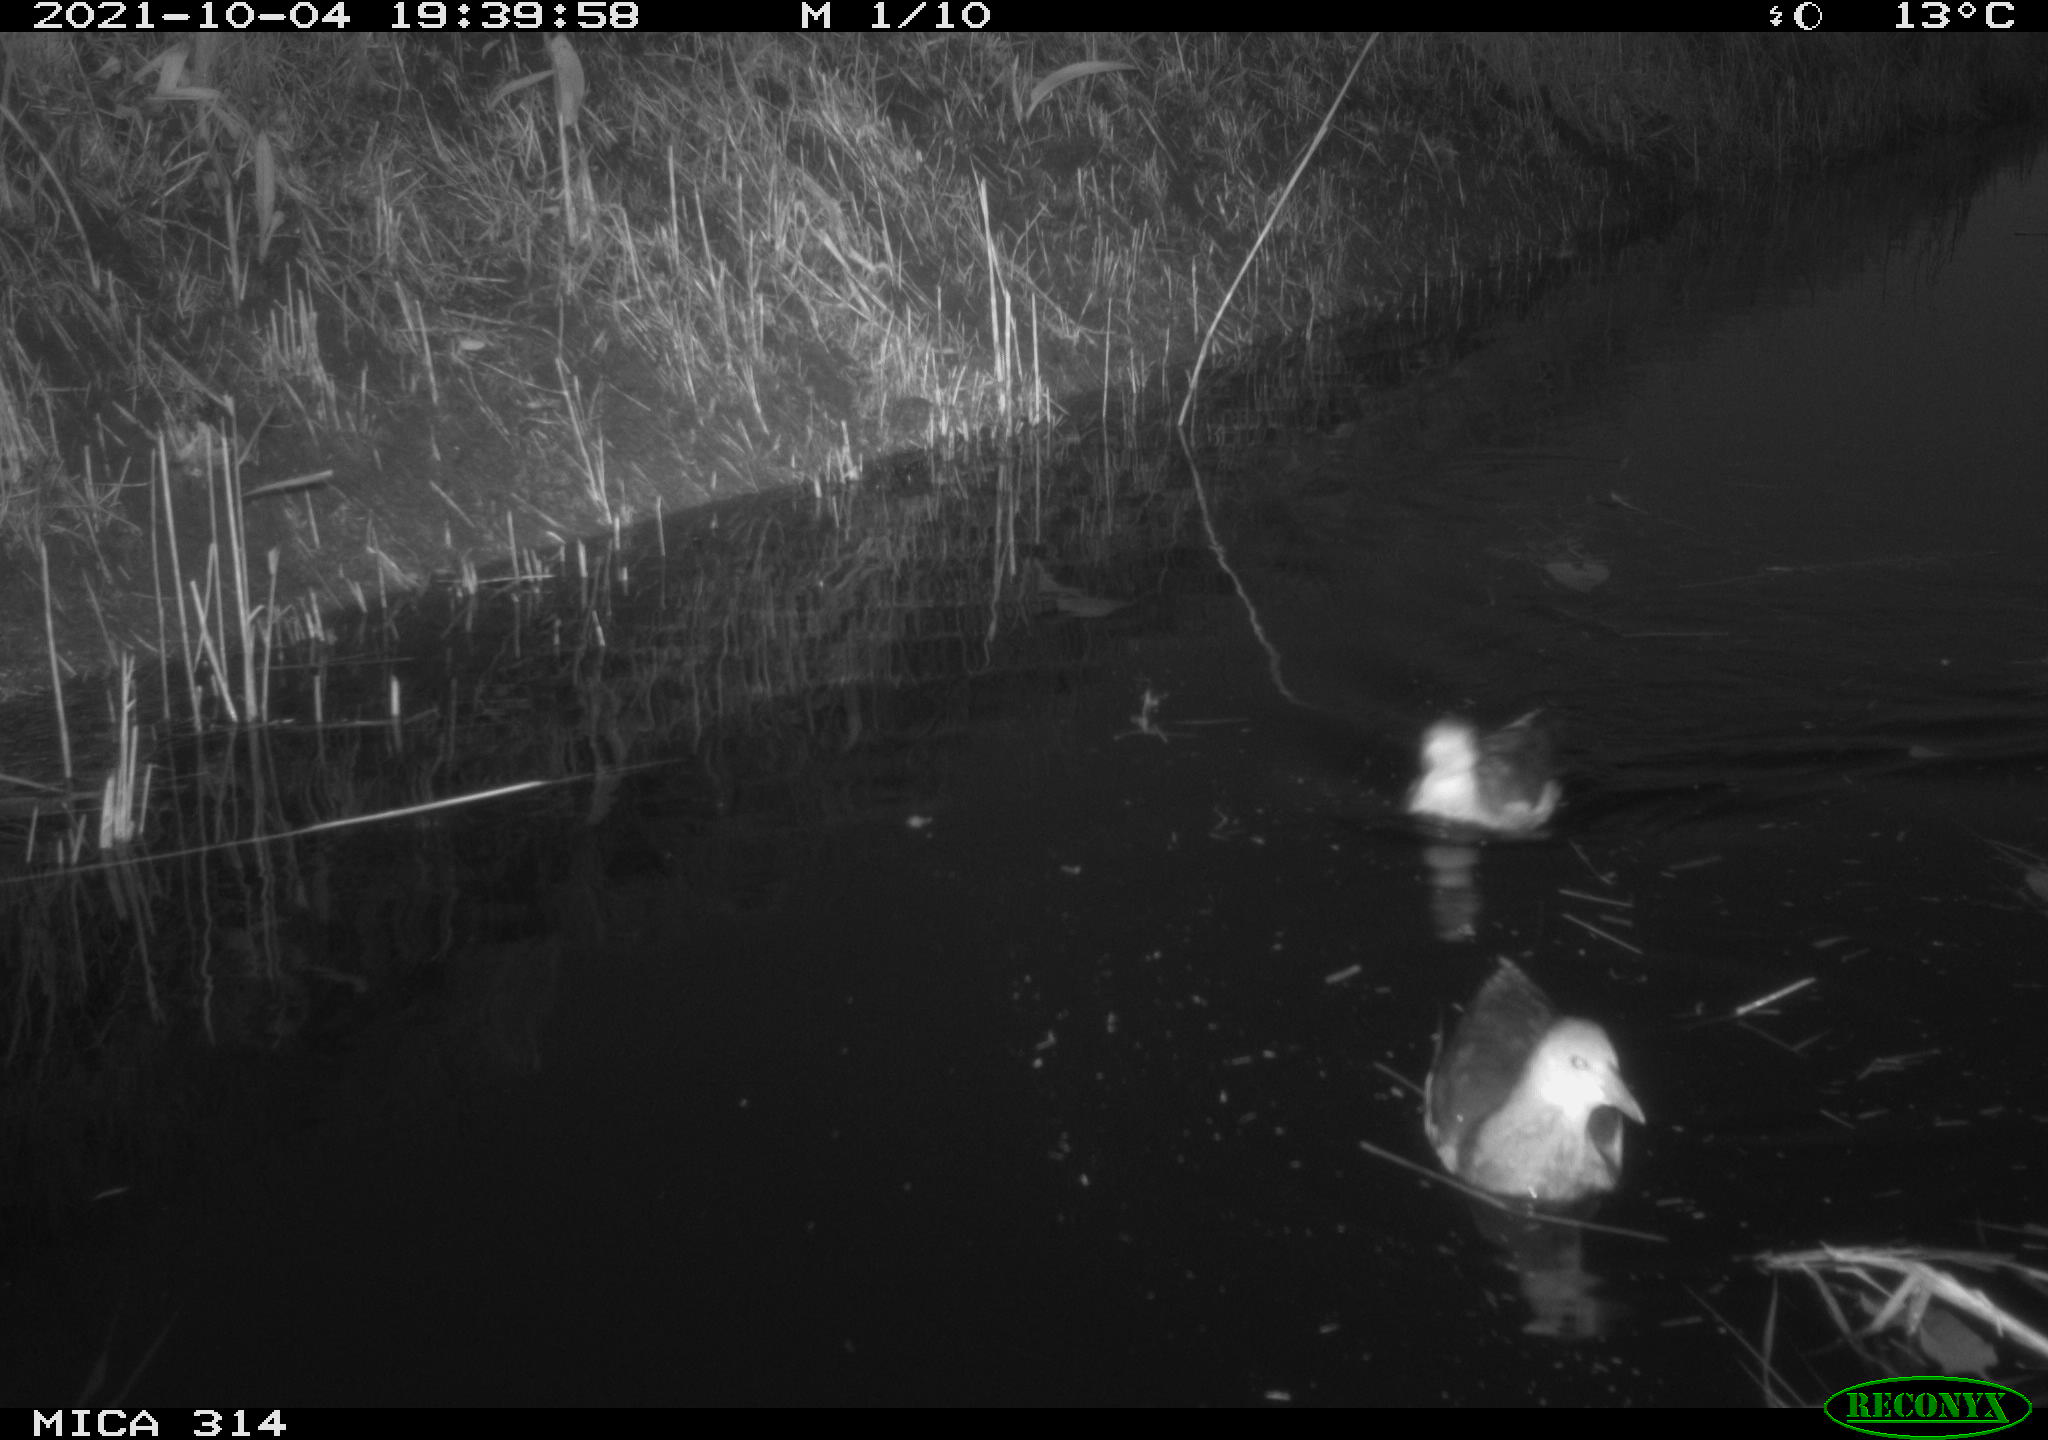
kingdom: Animalia
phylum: Chordata
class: Aves
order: Anseriformes
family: Anatidae
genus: Anas
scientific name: Anas
